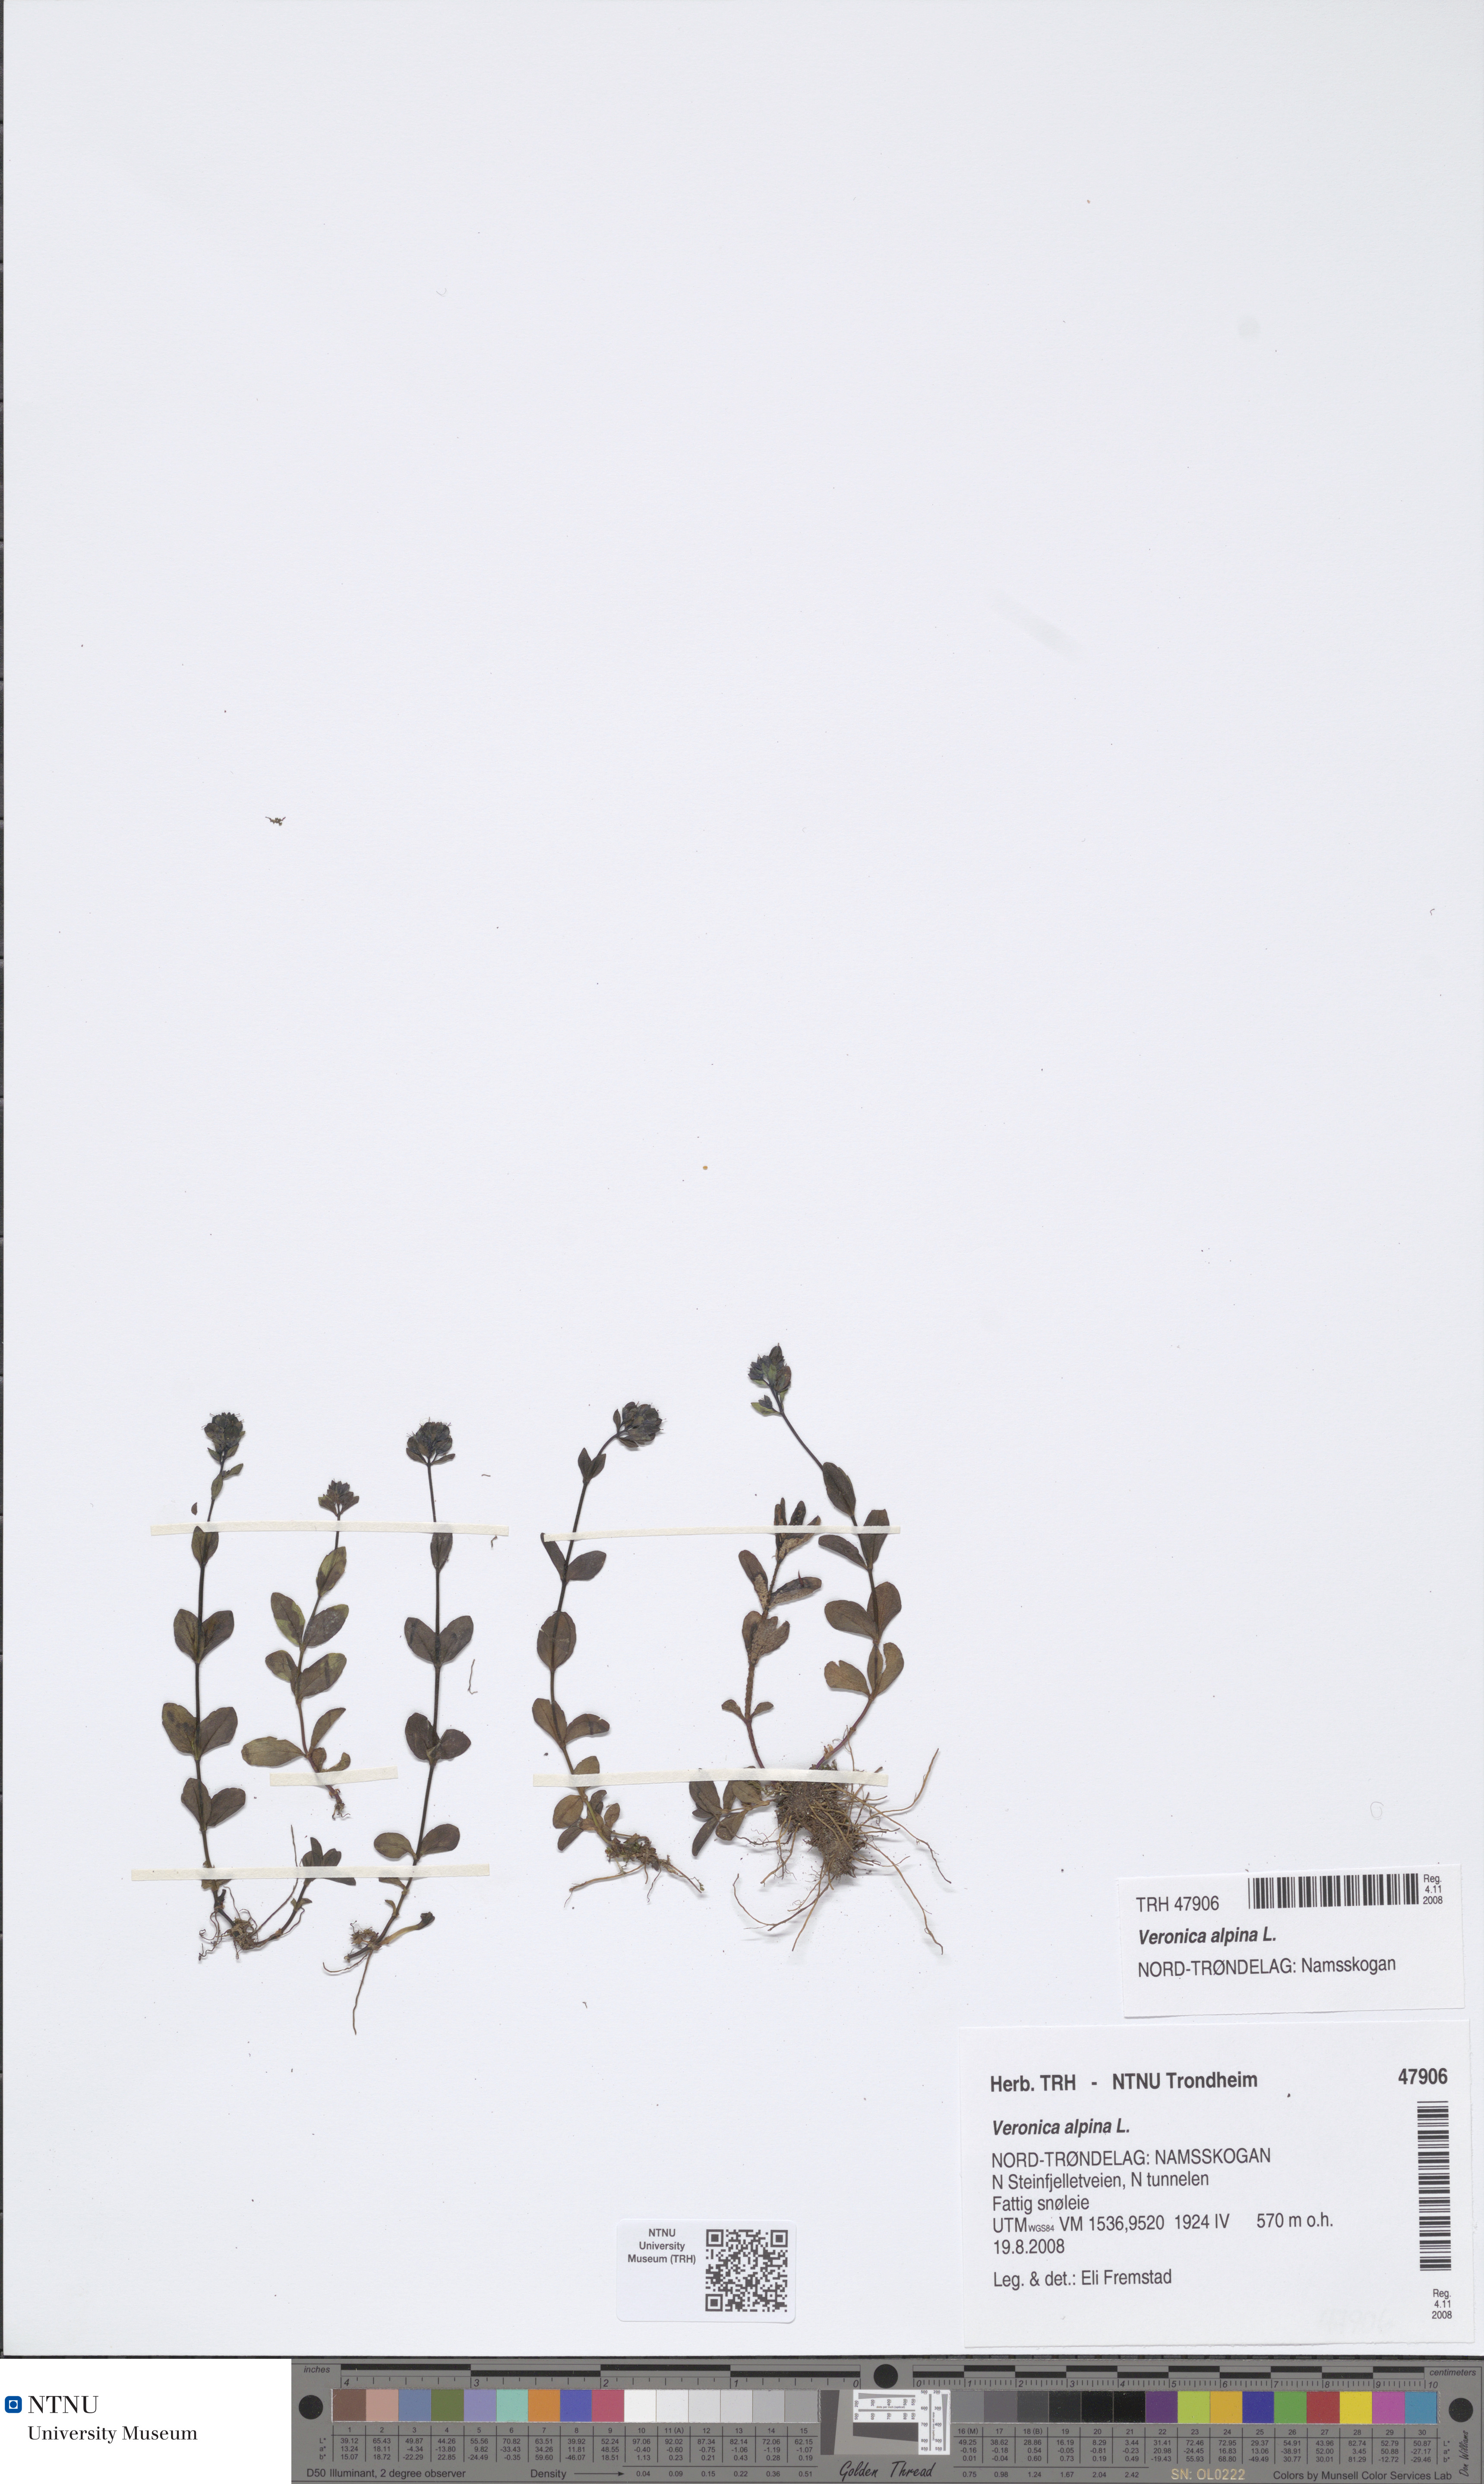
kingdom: Plantae
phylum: Tracheophyta
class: Magnoliopsida
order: Lamiales
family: Plantaginaceae
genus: Veronica
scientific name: Veronica alpina
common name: Alpine speedwell
